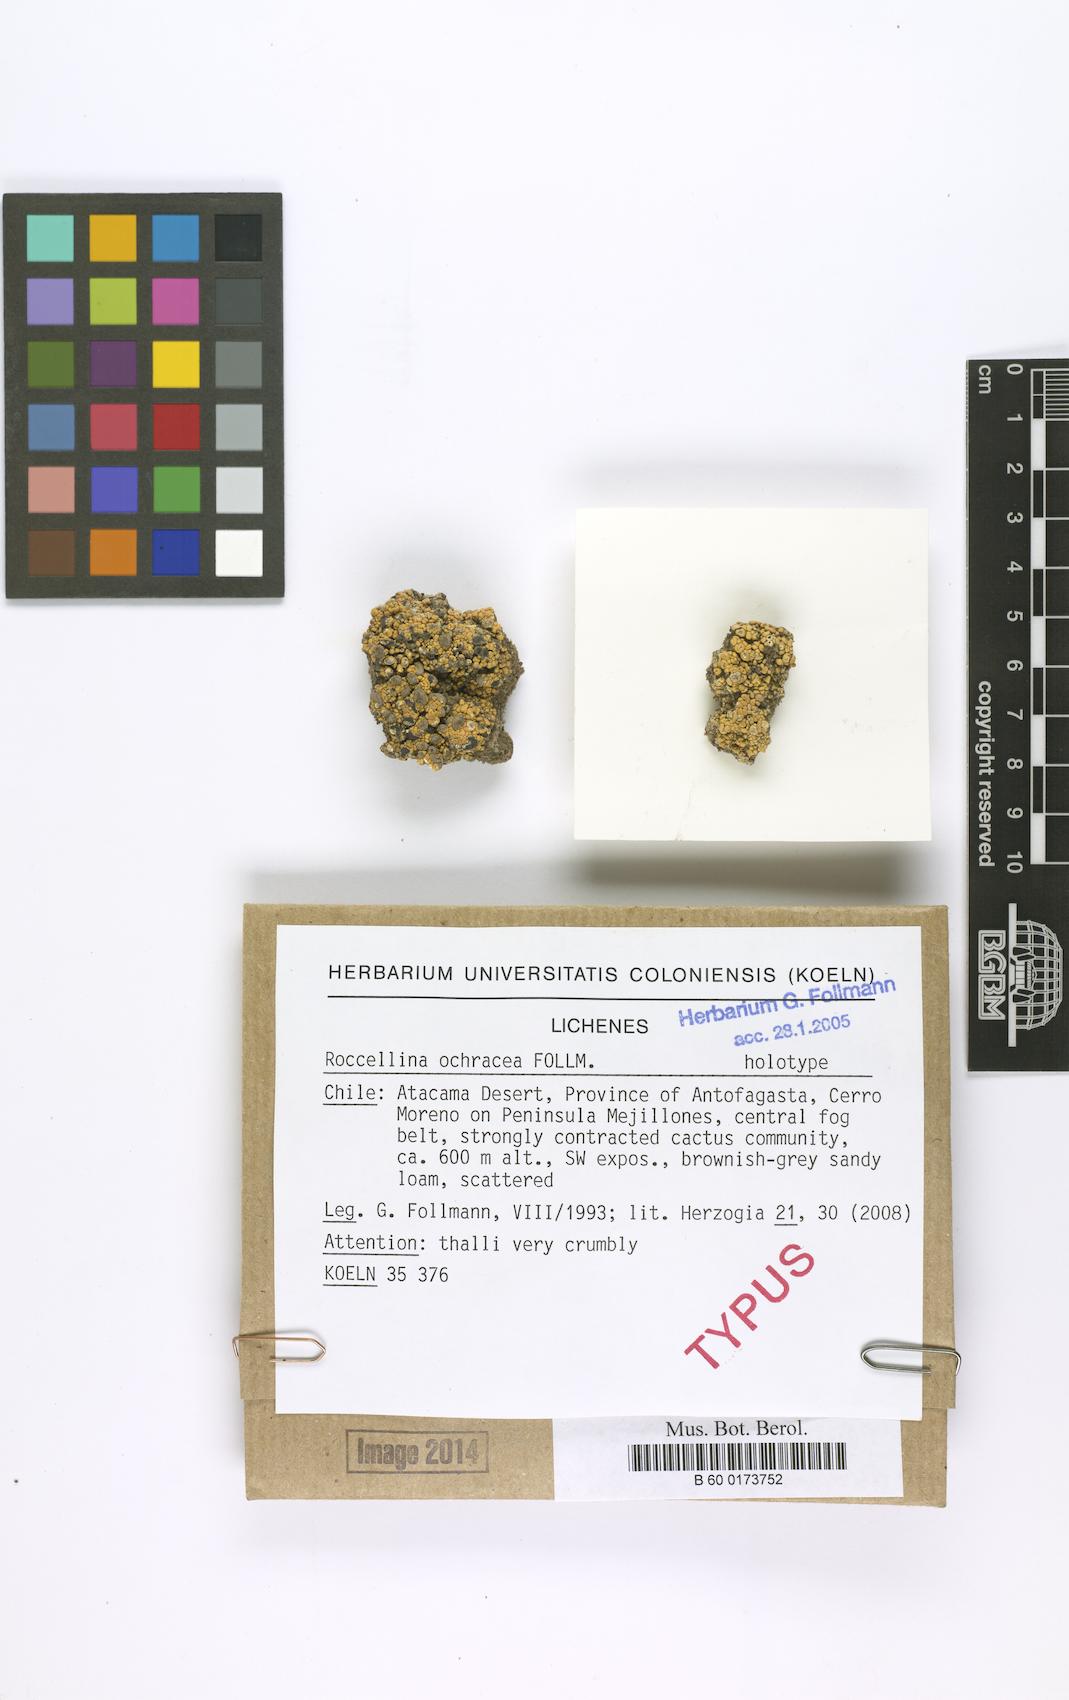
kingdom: Fungi
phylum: Ascomycota
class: Arthoniomycetes
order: Arthoniales
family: Roccellaceae
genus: Roccellina
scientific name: Roccellina ochracea
